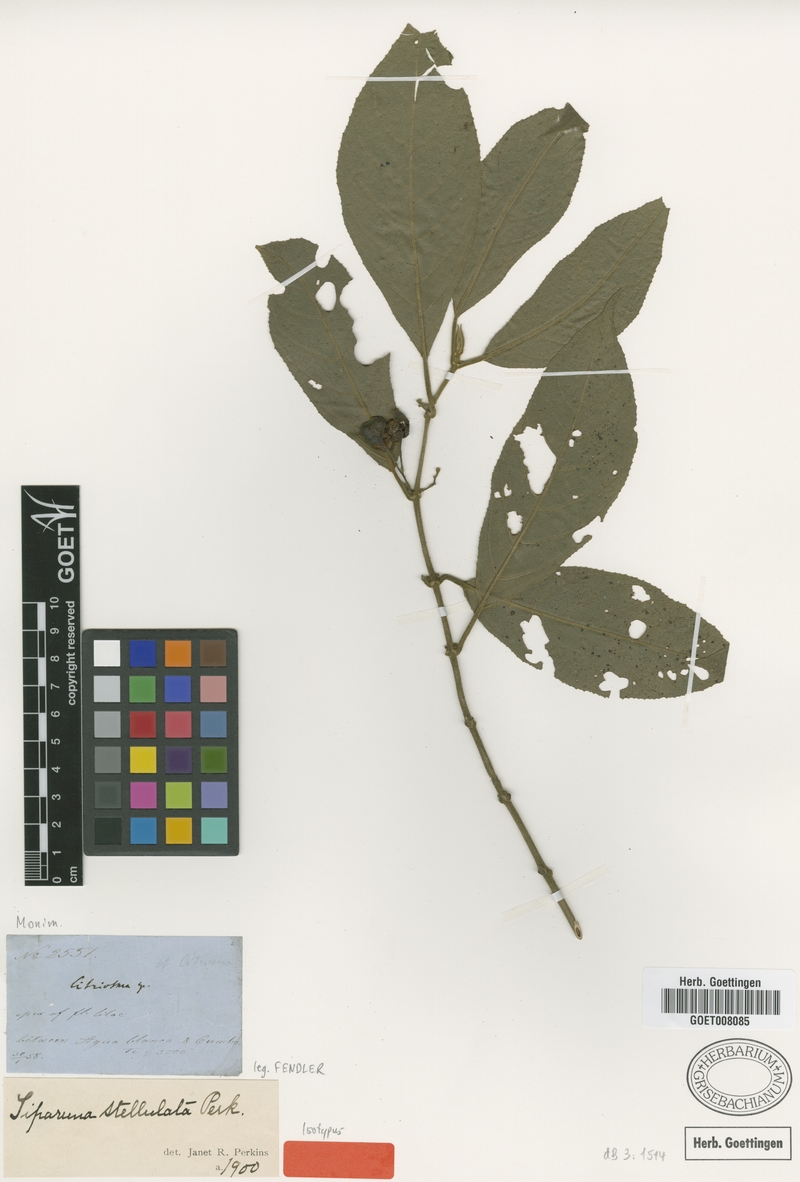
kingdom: Plantae
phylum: Tracheophyta
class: Magnoliopsida
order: Laurales
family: Siparunaceae
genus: Siparuna
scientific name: Siparuna stellulata
